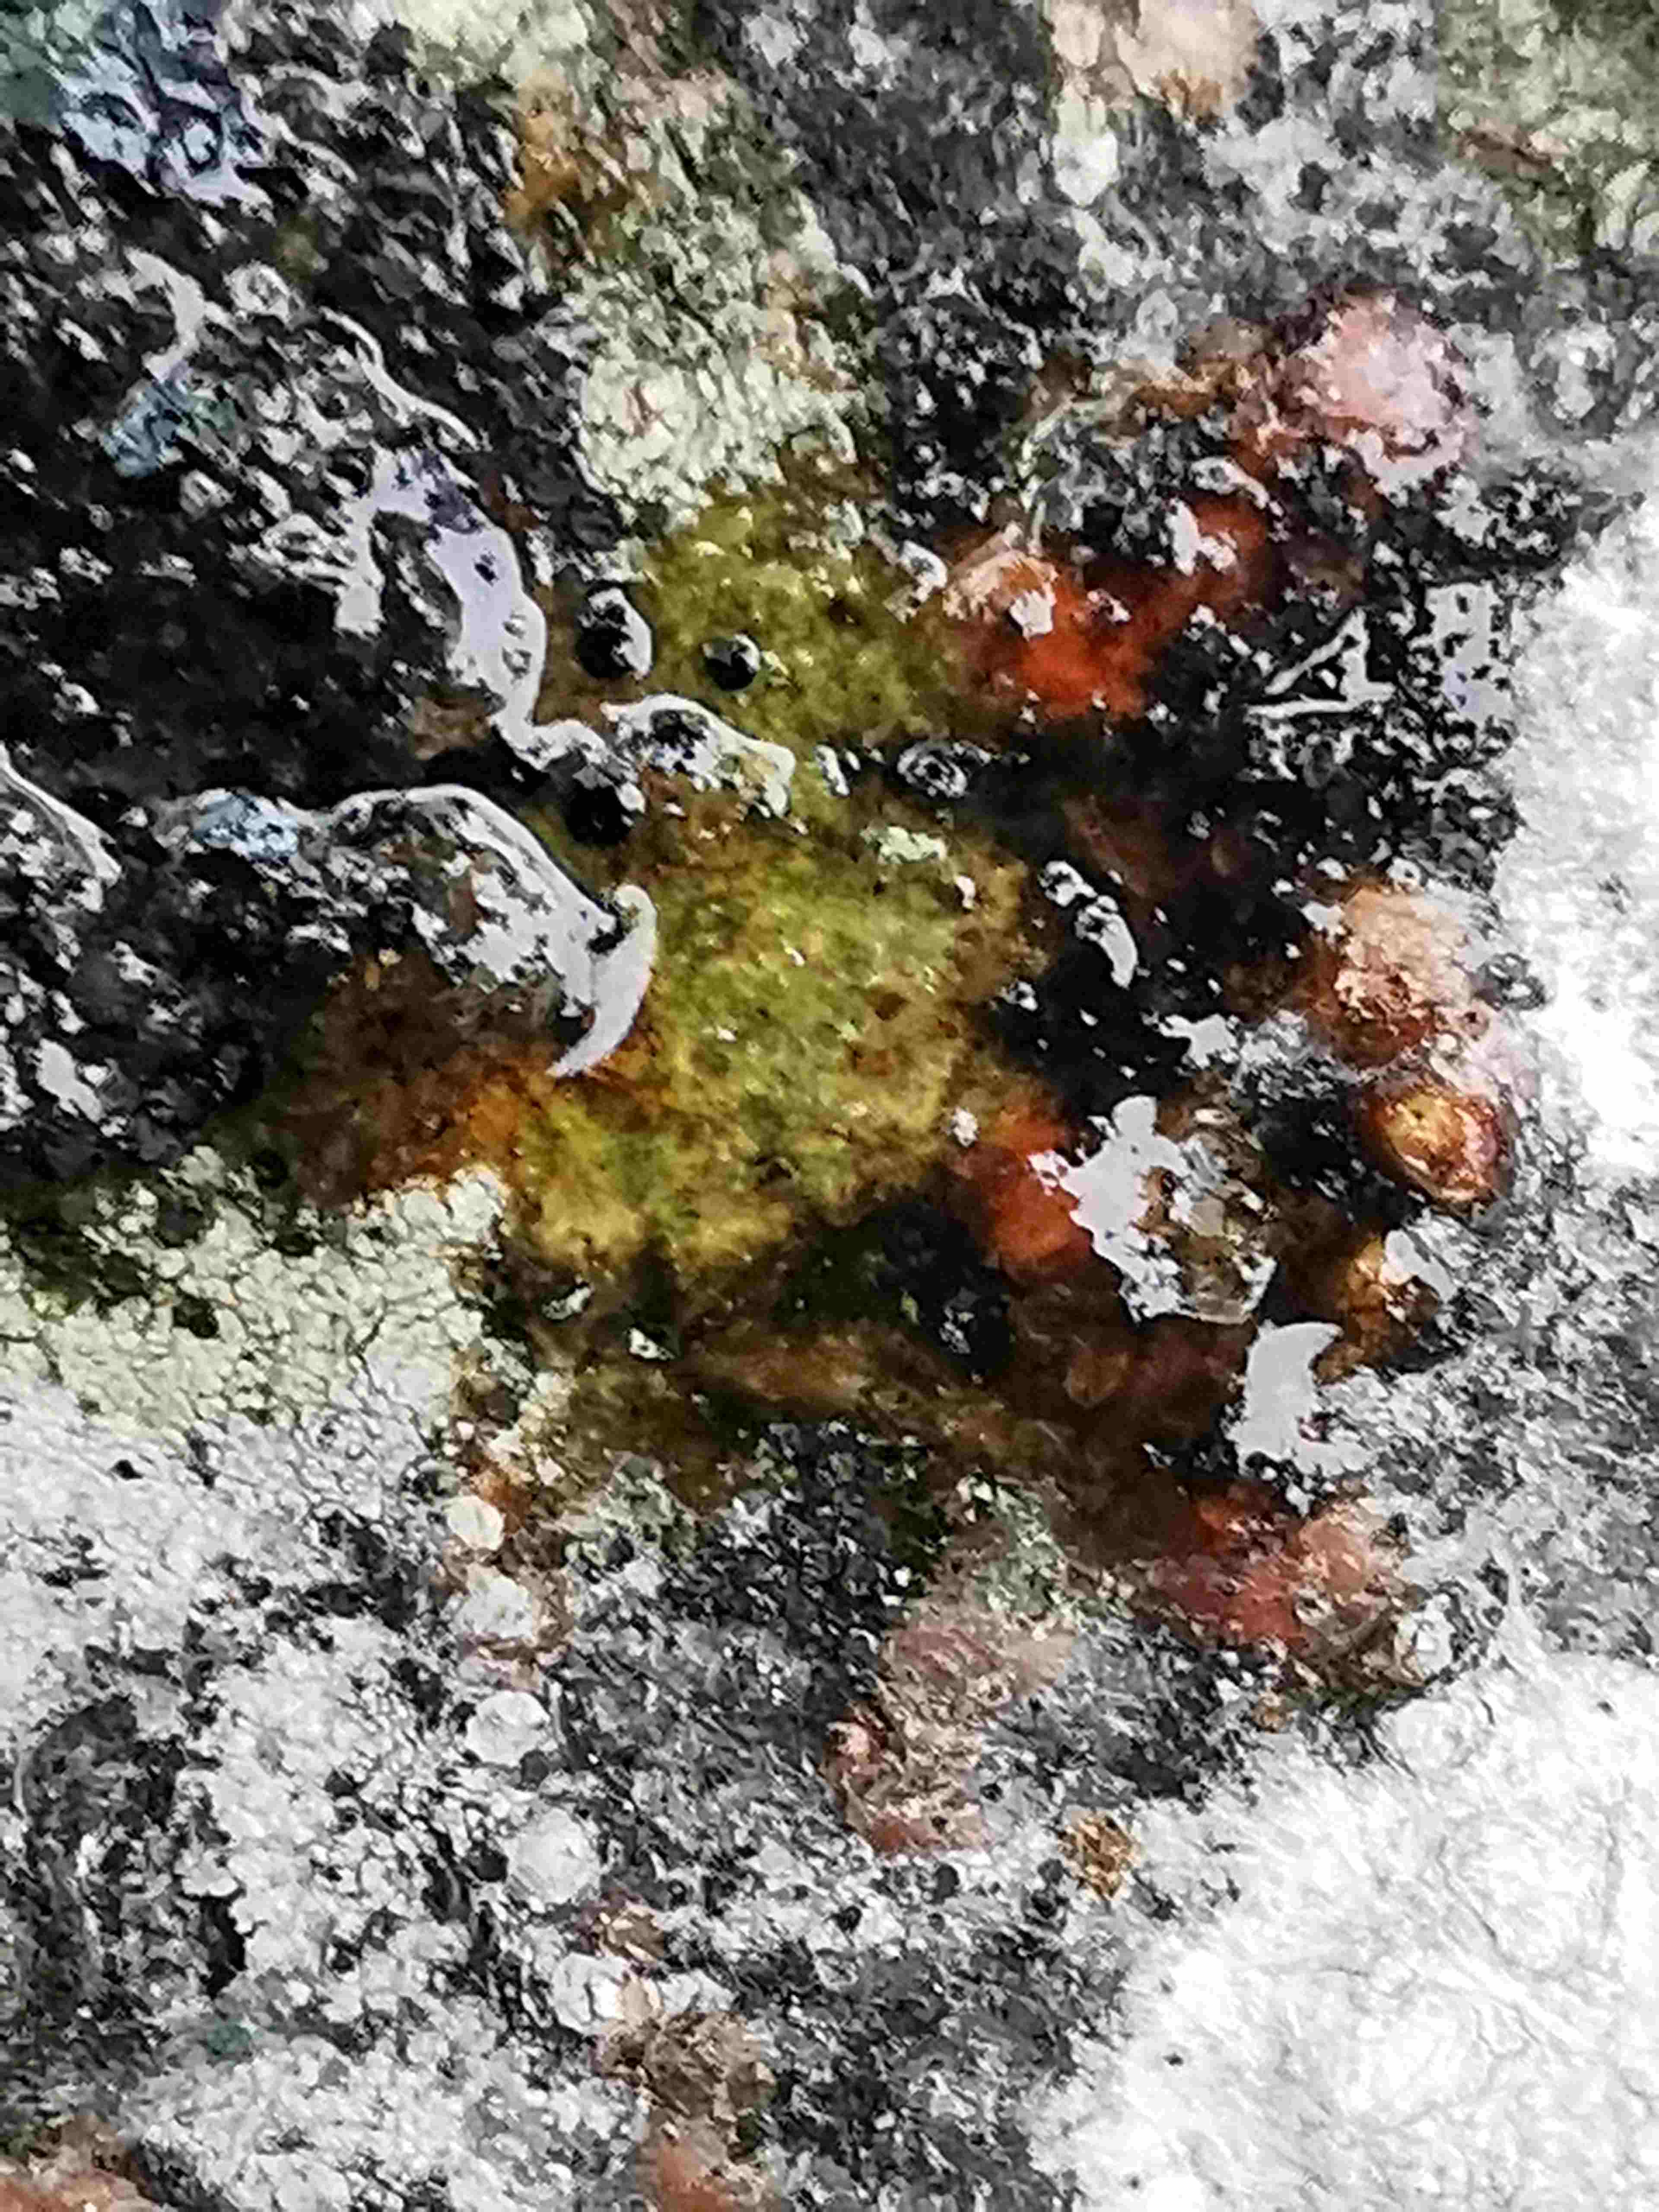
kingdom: Fungi
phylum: Ascomycota
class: Lecanoromycetes
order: Lecanorales
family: Lecanoraceae
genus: Lecidella
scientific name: Lecidella elaeochroma
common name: grågrøn skivelav
